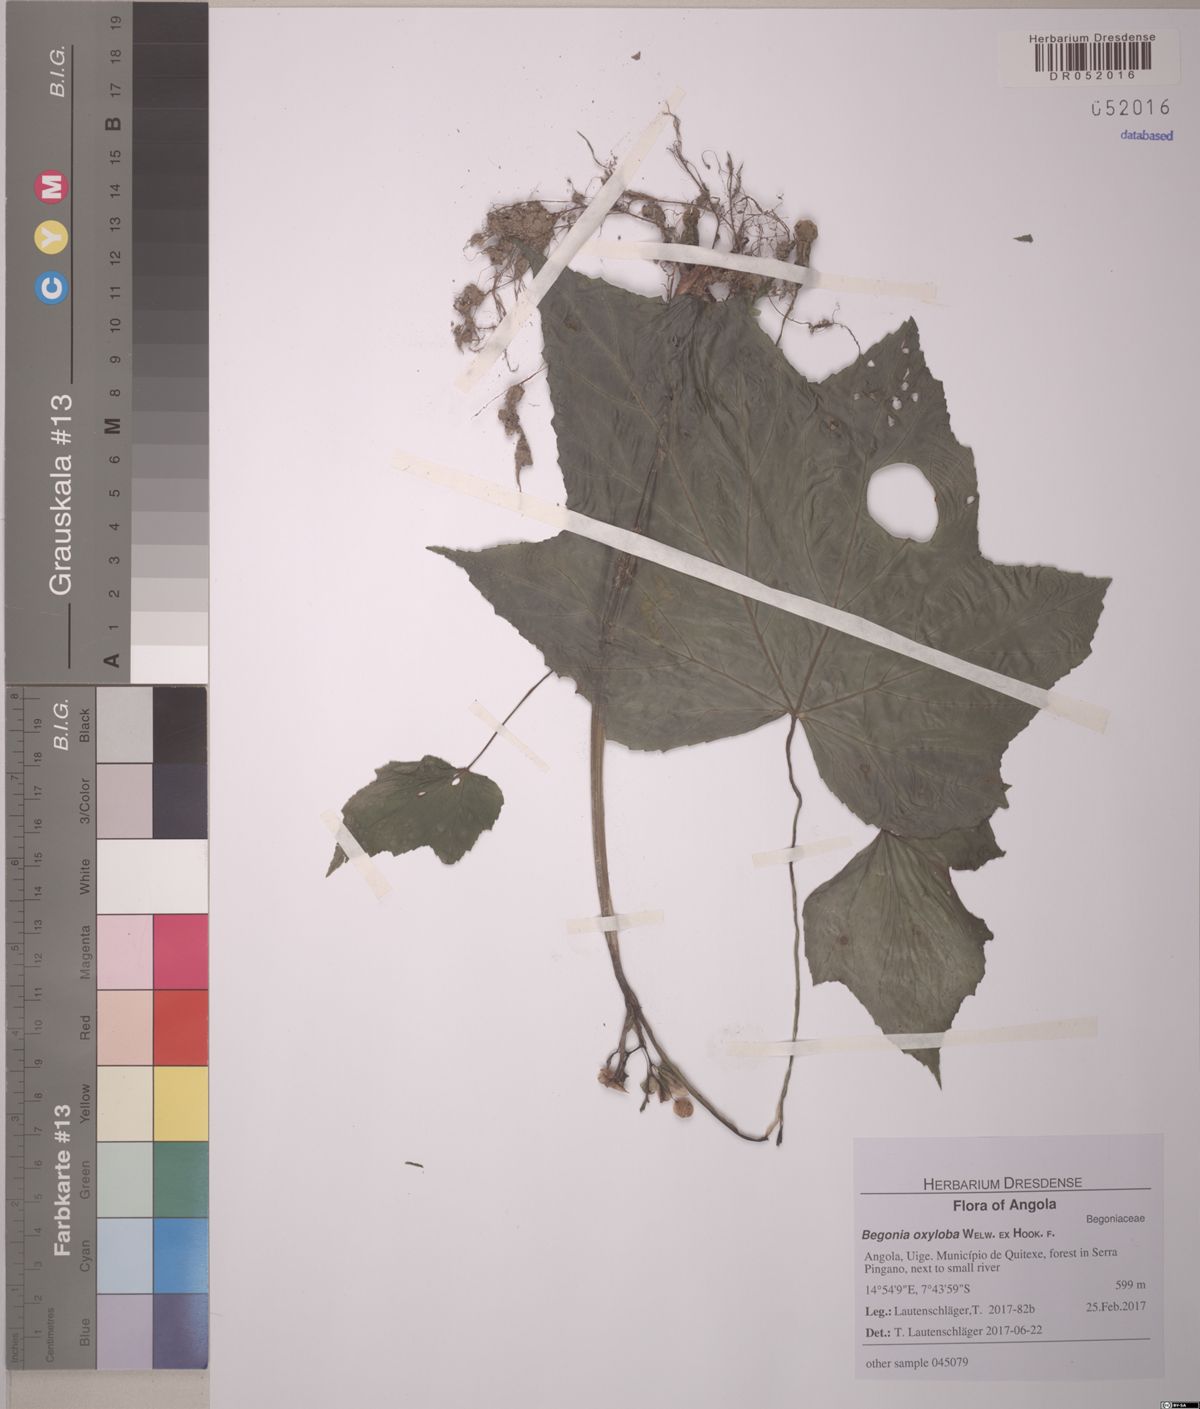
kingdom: Plantae
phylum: Tracheophyta
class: Magnoliopsida
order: Cucurbitales
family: Begoniaceae
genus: Begonia
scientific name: Begonia oxyloba
